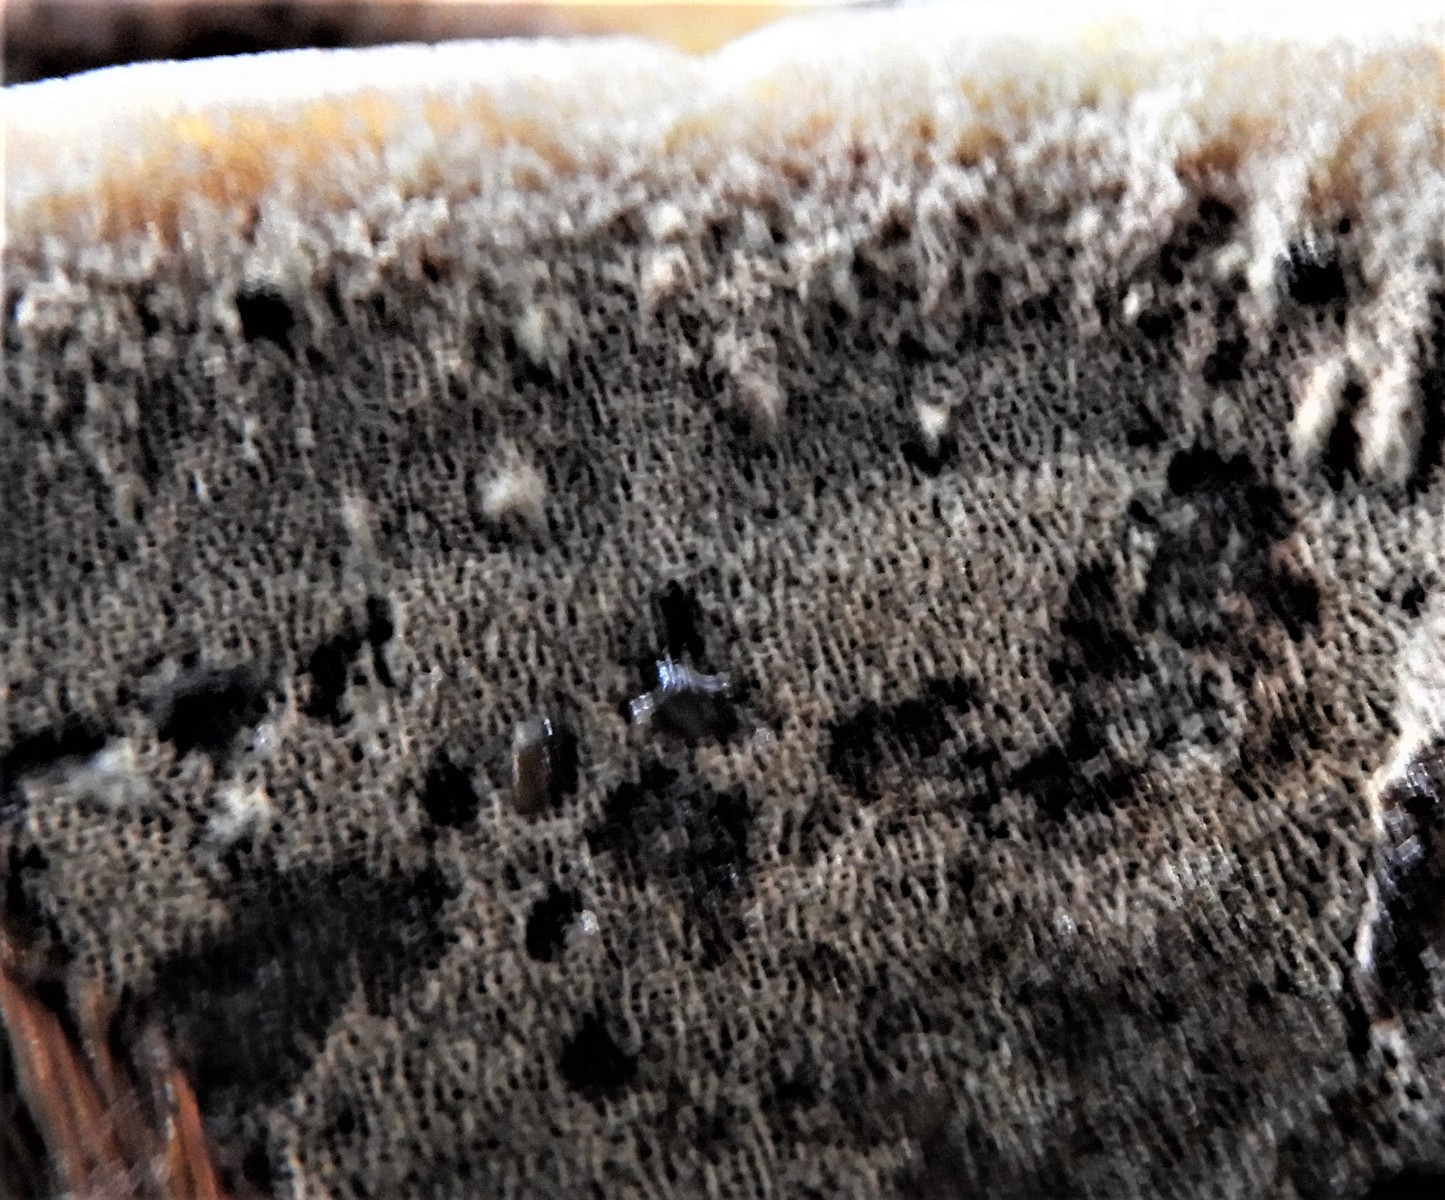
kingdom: Fungi
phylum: Basidiomycota
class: Agaricomycetes
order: Hymenochaetales
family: Hymenochaetaceae
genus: Xanthoporia
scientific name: Xanthoporia radiata
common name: elle-spejlporesvamp
